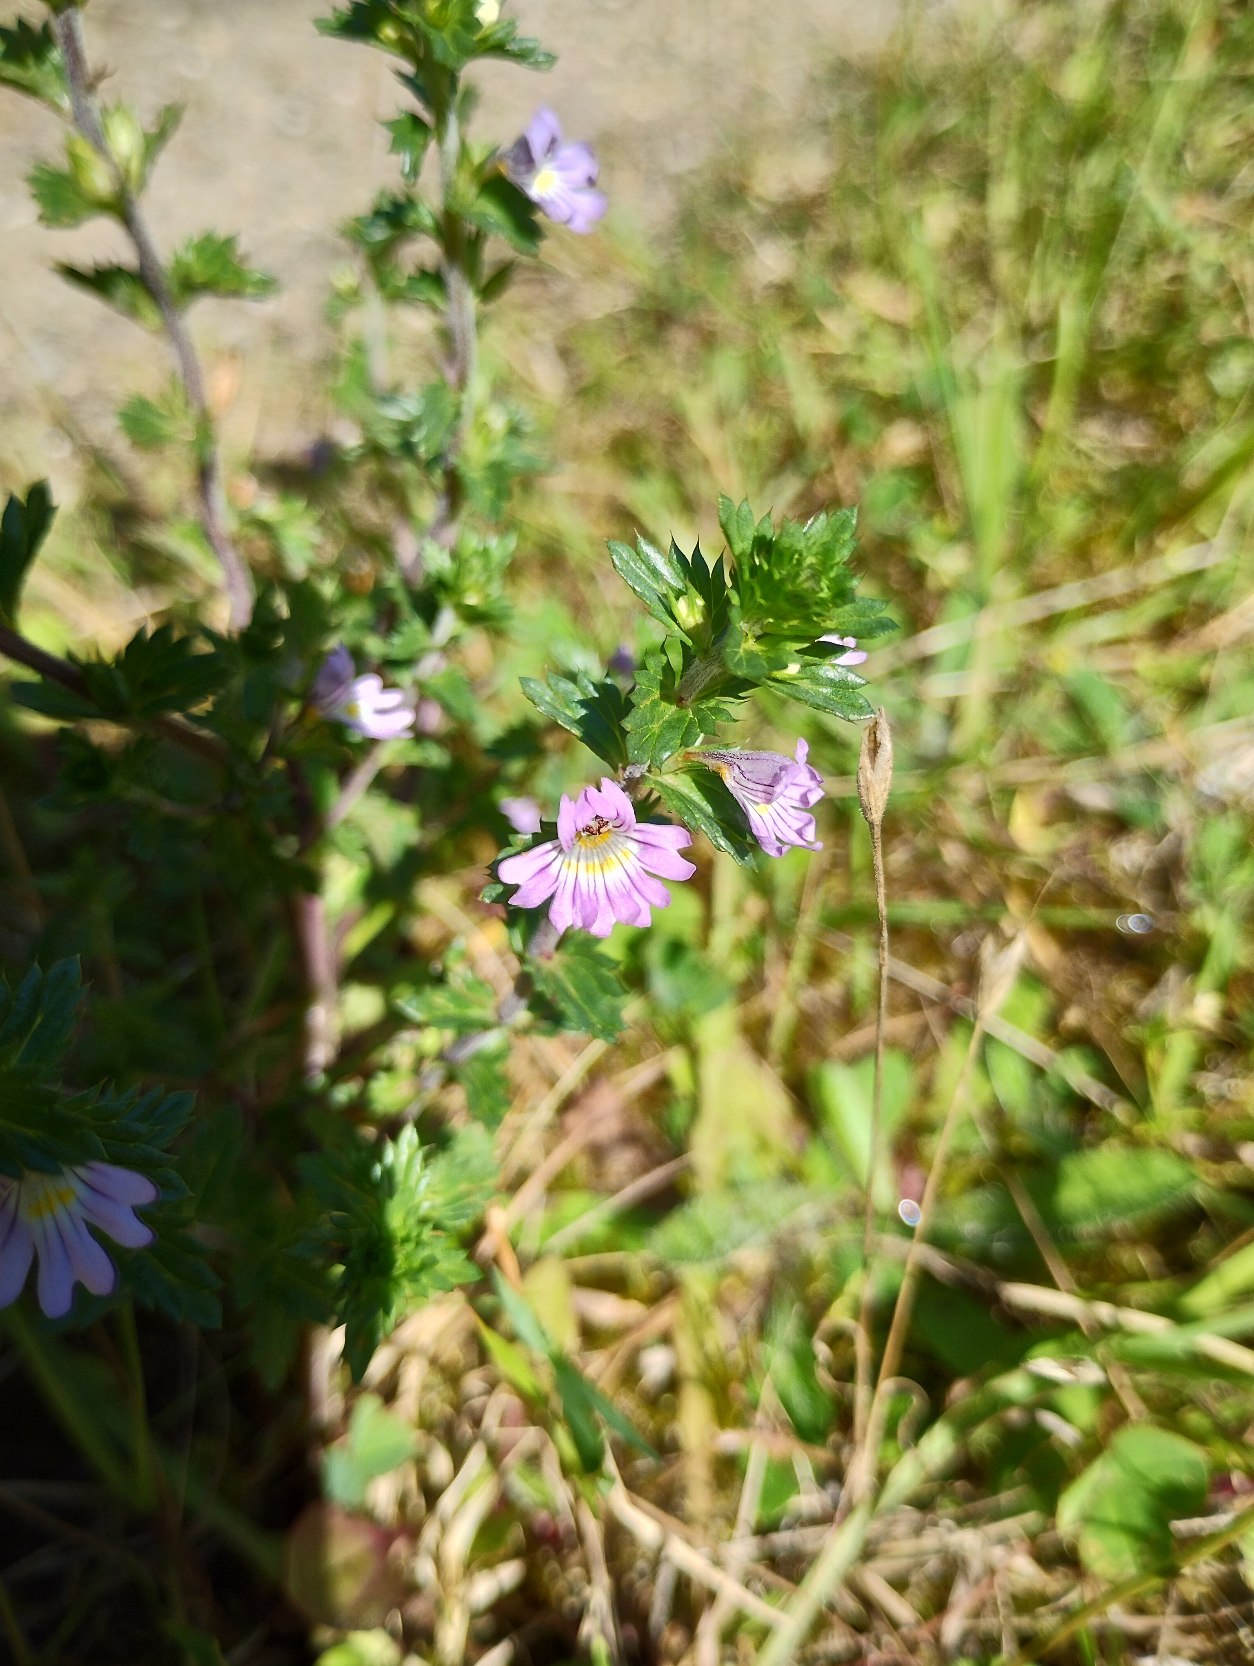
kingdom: Plantae
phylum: Tracheophyta
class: Magnoliopsida
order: Lamiales
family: Orobanchaceae
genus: Euphrasia
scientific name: Euphrasia stricta
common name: Spids øjentrøst
